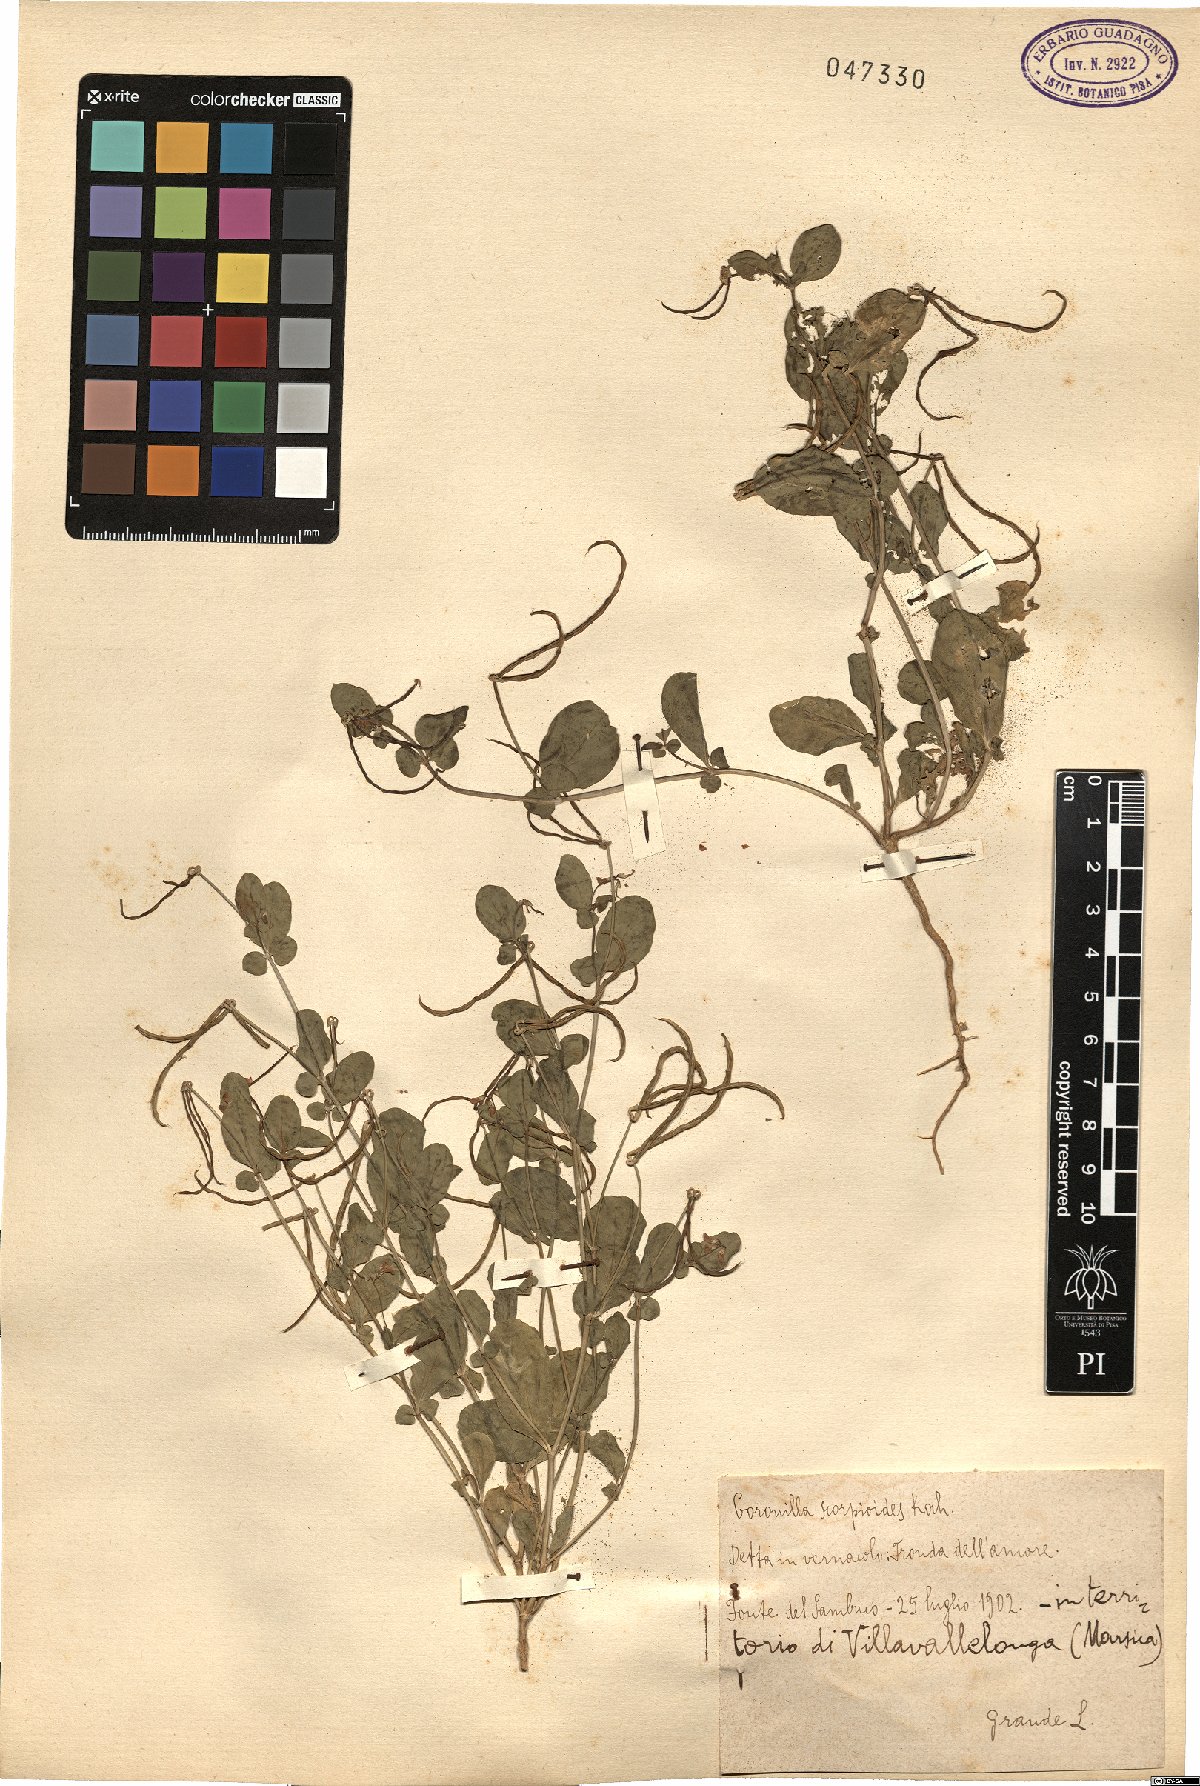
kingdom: Plantae
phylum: Tracheophyta
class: Magnoliopsida
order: Fabales
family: Fabaceae
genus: Coronilla
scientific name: Coronilla scorpioides
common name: Annual scorpion-vetch
